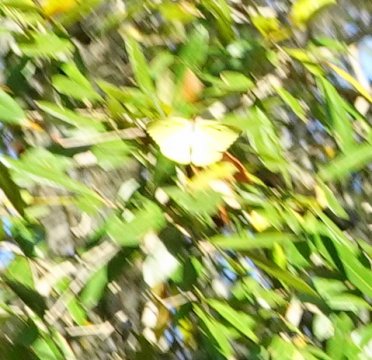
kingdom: Animalia
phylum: Arthropoda
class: Insecta
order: Lepidoptera
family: Pieridae
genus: Phoebis
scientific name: Phoebis sennae
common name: Cloudless Sulphur
